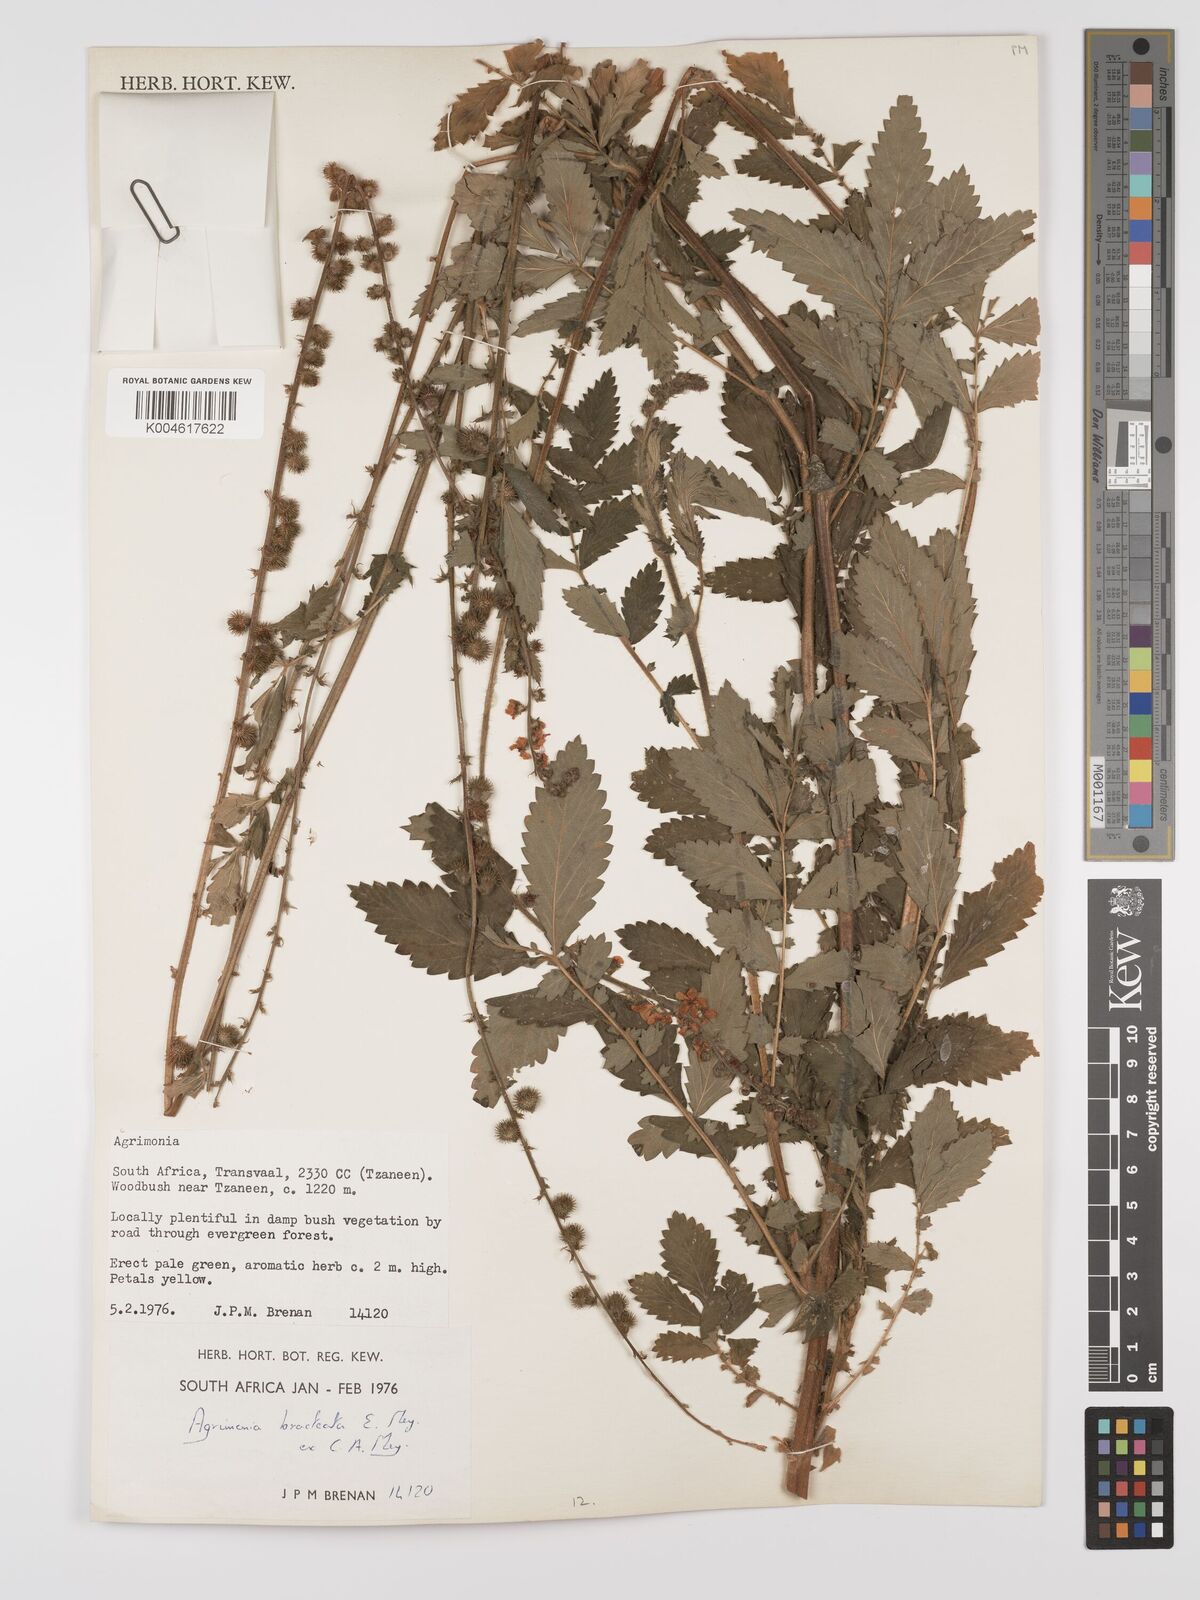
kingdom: Plantae
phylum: Tracheophyta
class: Magnoliopsida
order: Rosales
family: Rosaceae
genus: Agrimonia
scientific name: Agrimonia bracteata
